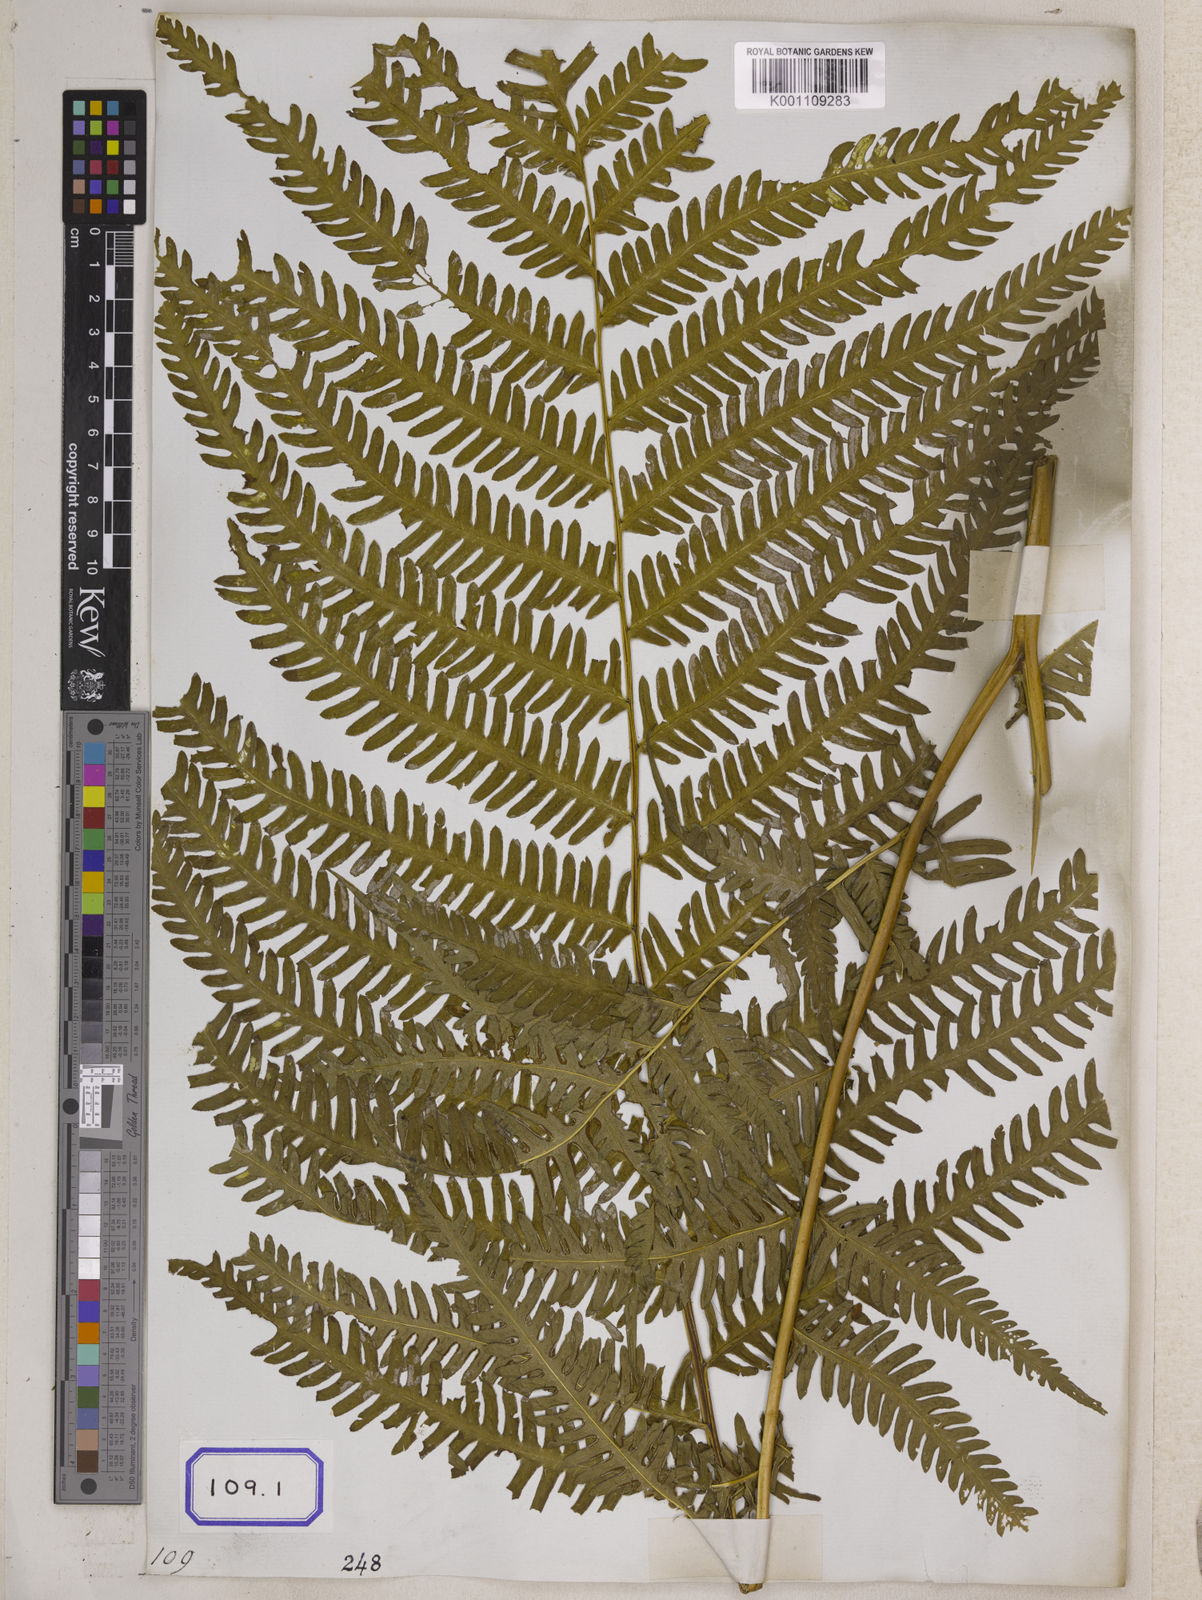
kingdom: Plantae
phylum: Tracheophyta
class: Polypodiopsida
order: Polypodiales
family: Pteridaceae
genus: Pteris
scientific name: Pteris longipes
